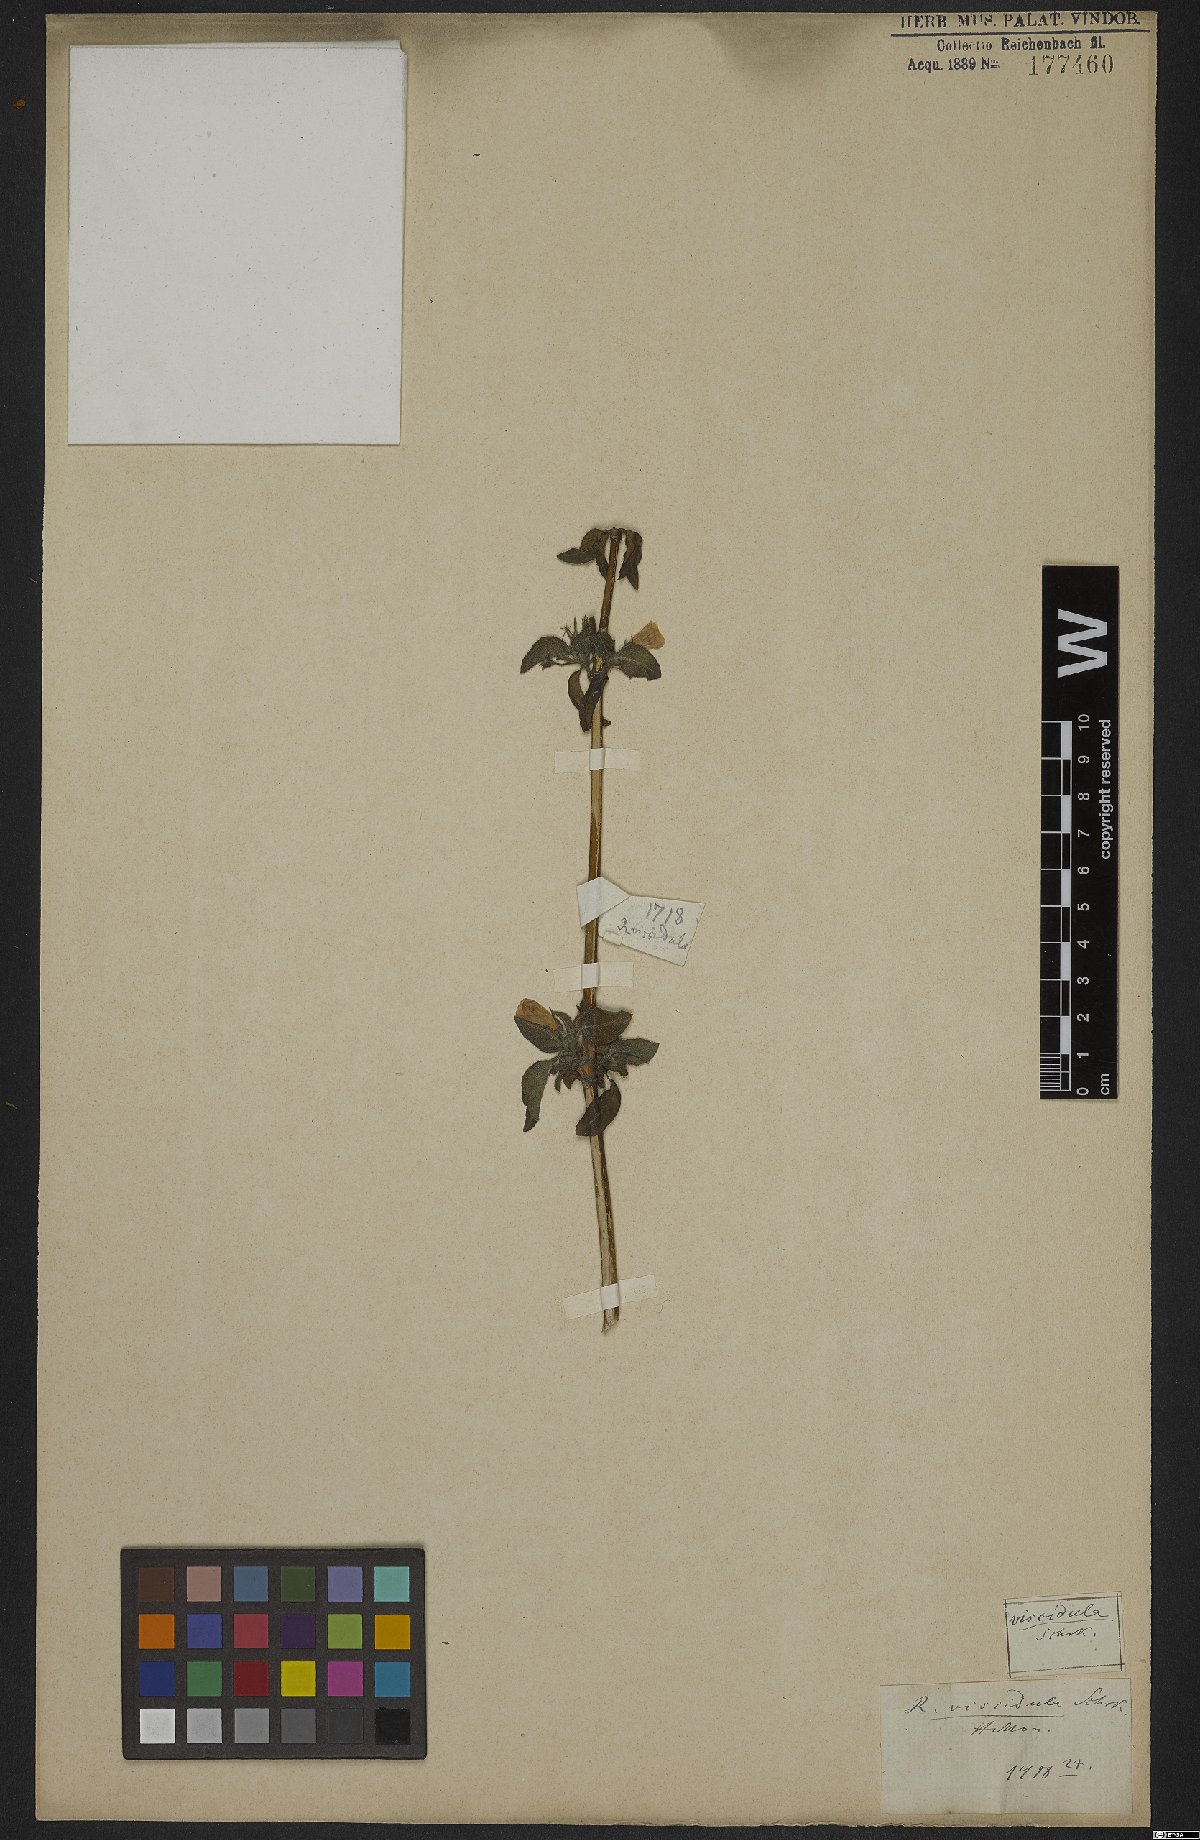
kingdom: Plantae
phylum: Tracheophyta
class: Magnoliopsida
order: Lamiales
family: Acanthaceae
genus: Ruellia
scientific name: Ruellia viscidula
